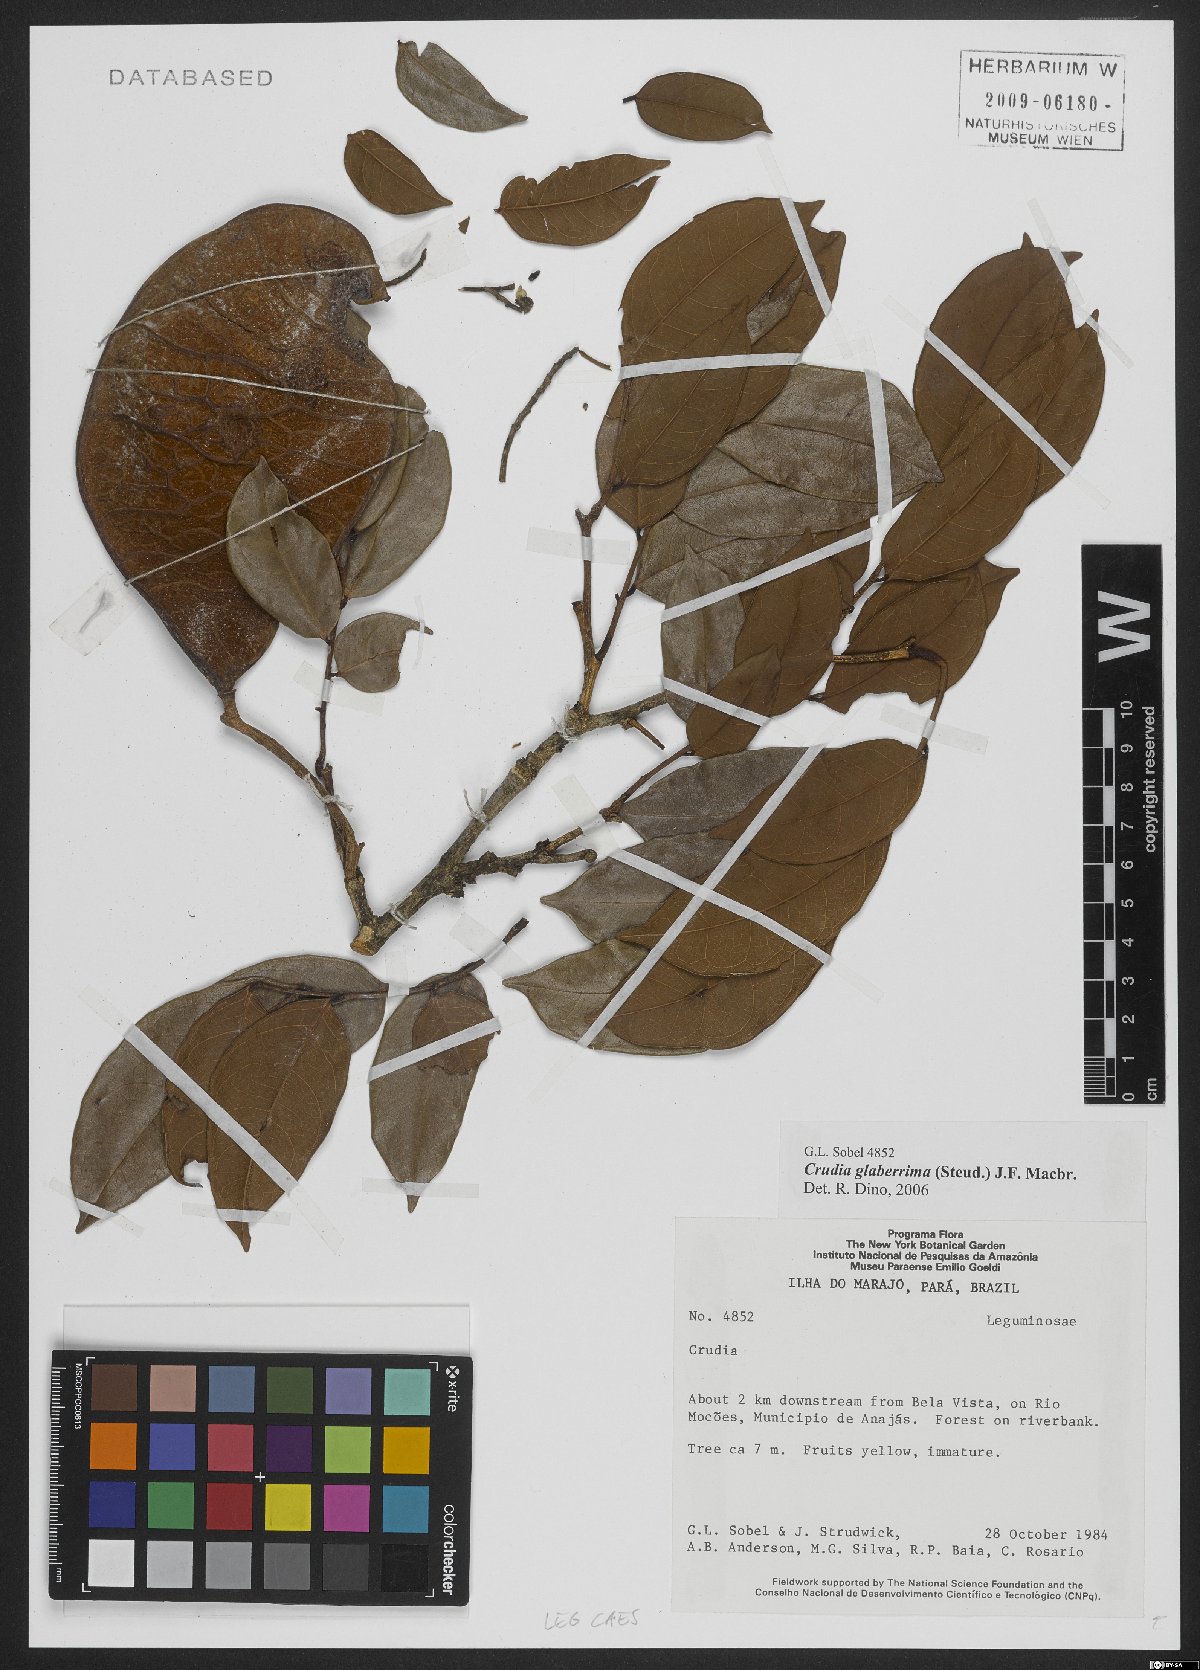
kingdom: Plantae
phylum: Tracheophyta
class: Magnoliopsida
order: Fabales
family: Fabaceae
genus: Crudia
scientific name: Crudia glaberrima
